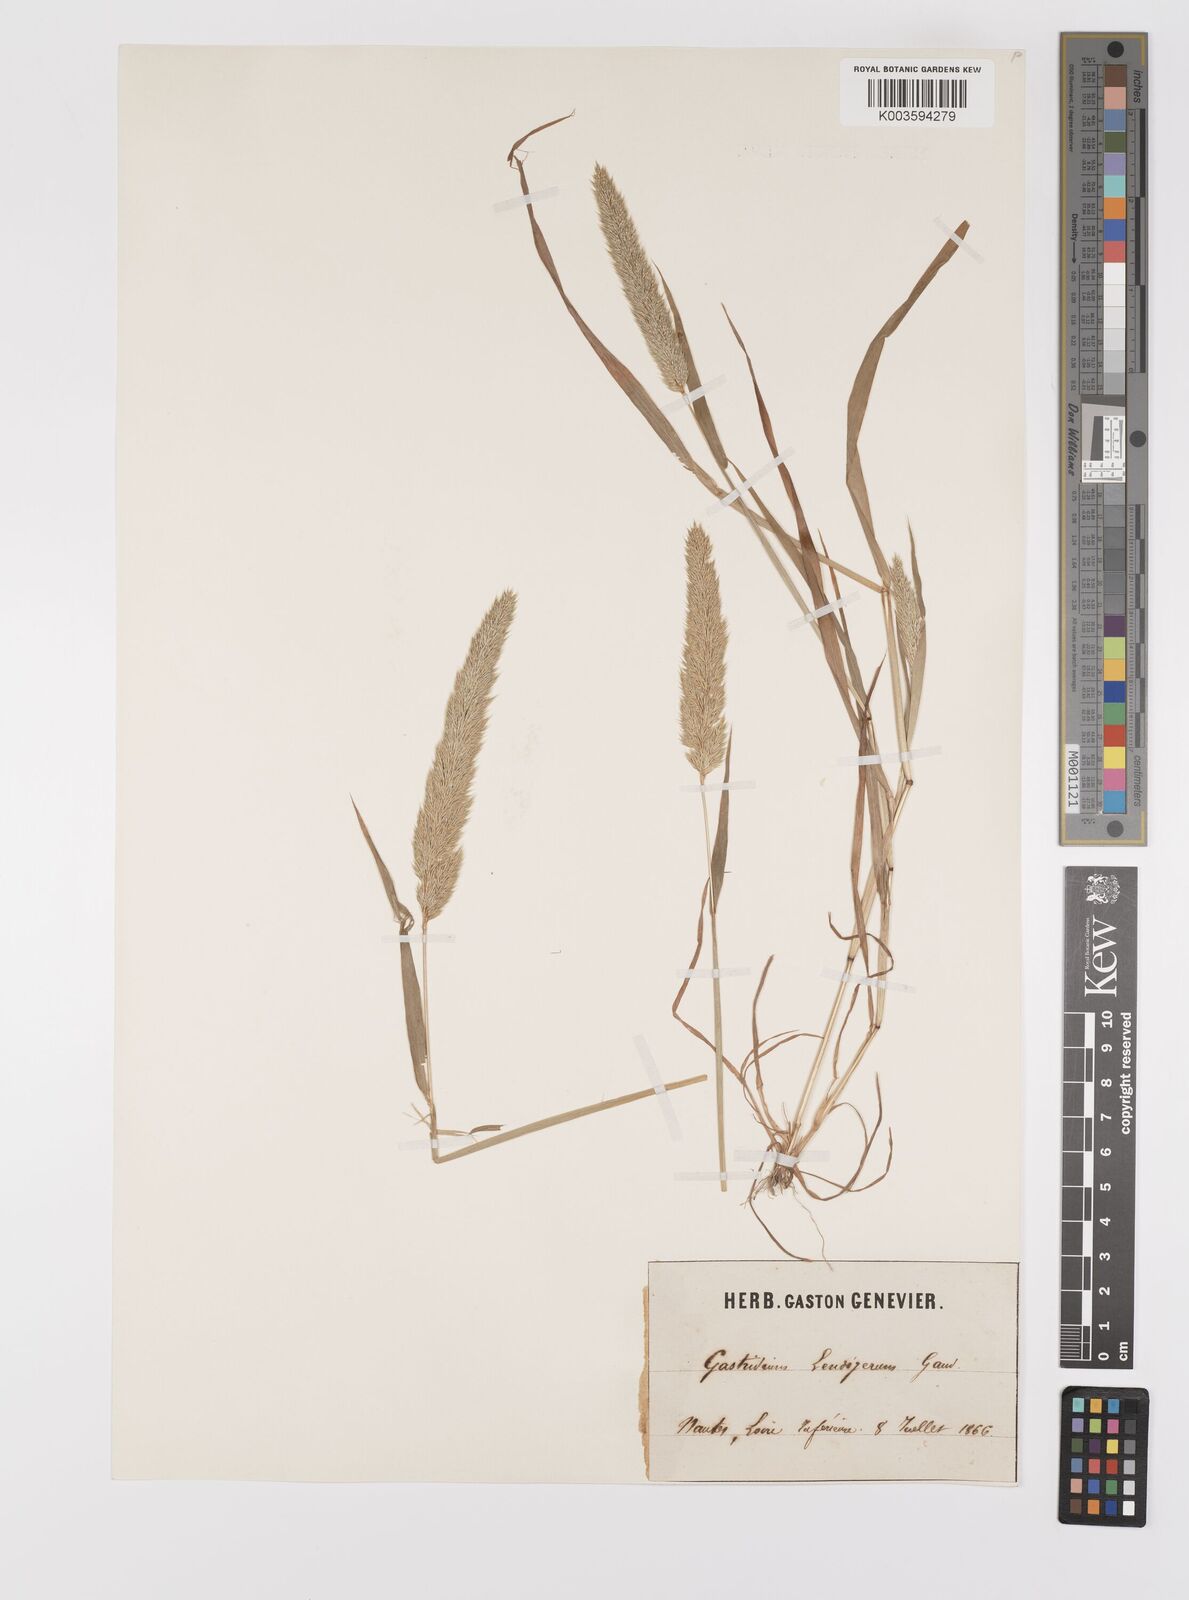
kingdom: Plantae
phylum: Tracheophyta
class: Liliopsida
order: Poales
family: Poaceae
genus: Gastridium
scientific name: Gastridium ventricosum
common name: Nit-grass
